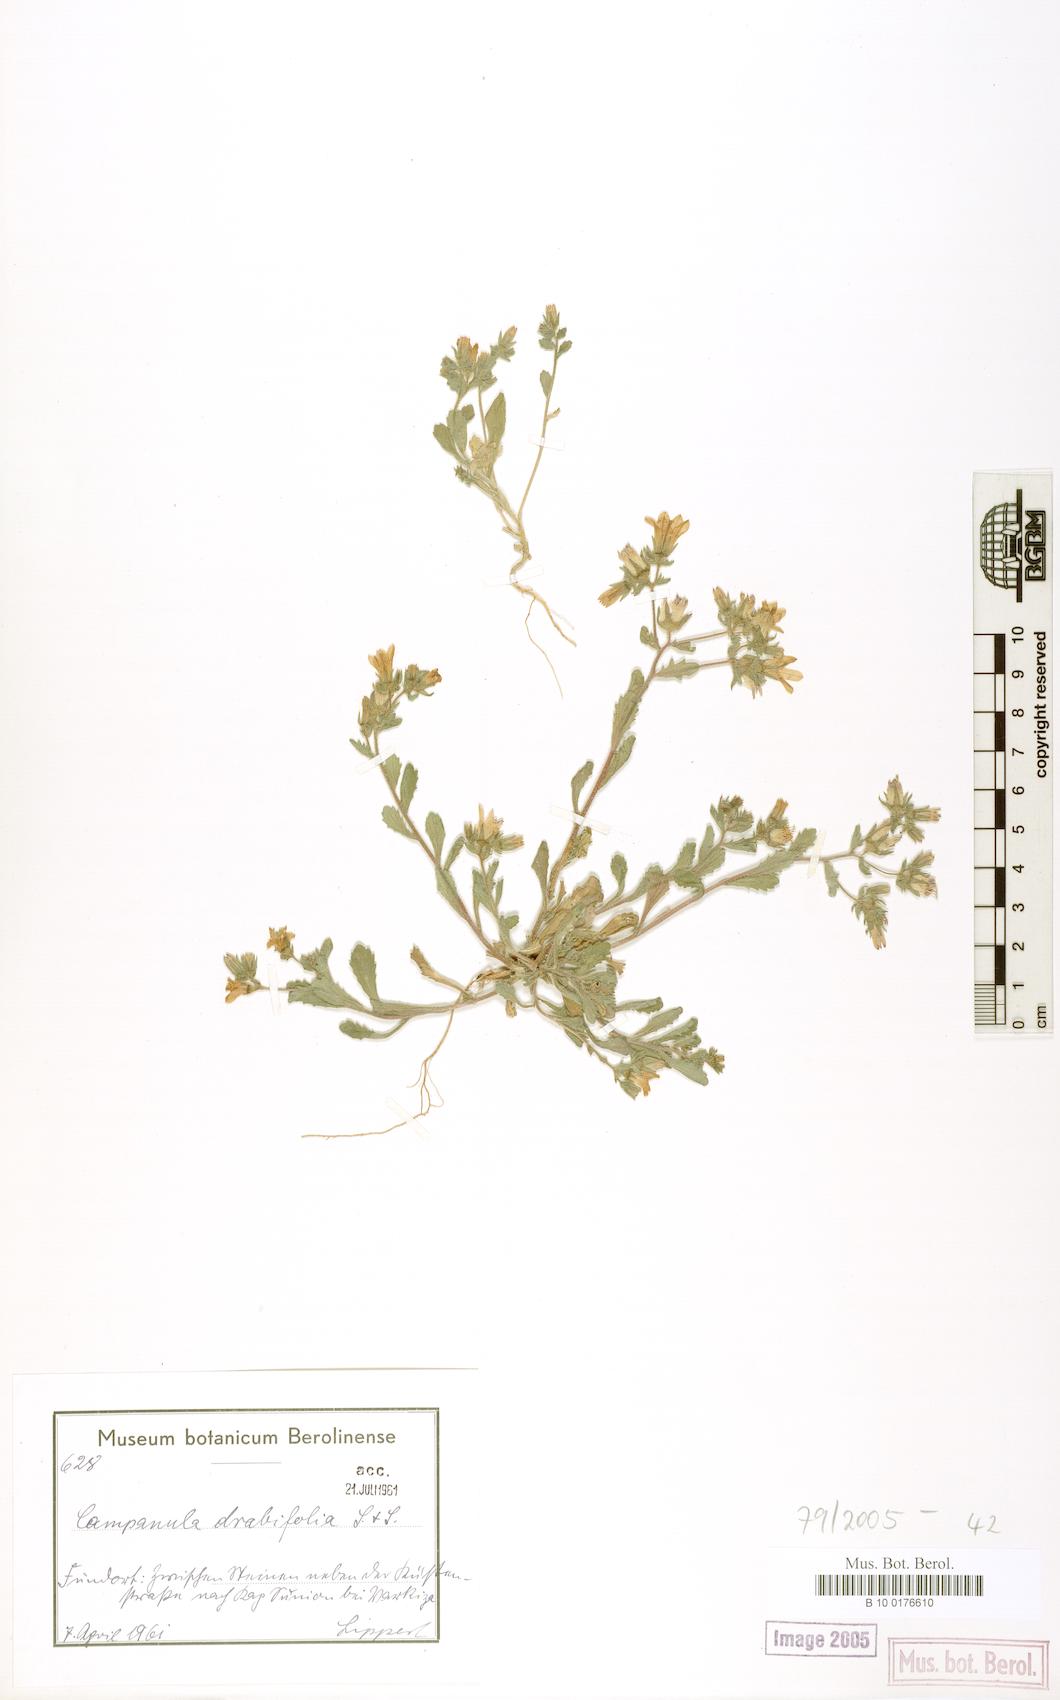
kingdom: Plantae
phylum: Tracheophyta
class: Magnoliopsida
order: Asterales
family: Campanulaceae
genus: Campanula
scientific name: Campanula drabifolia
